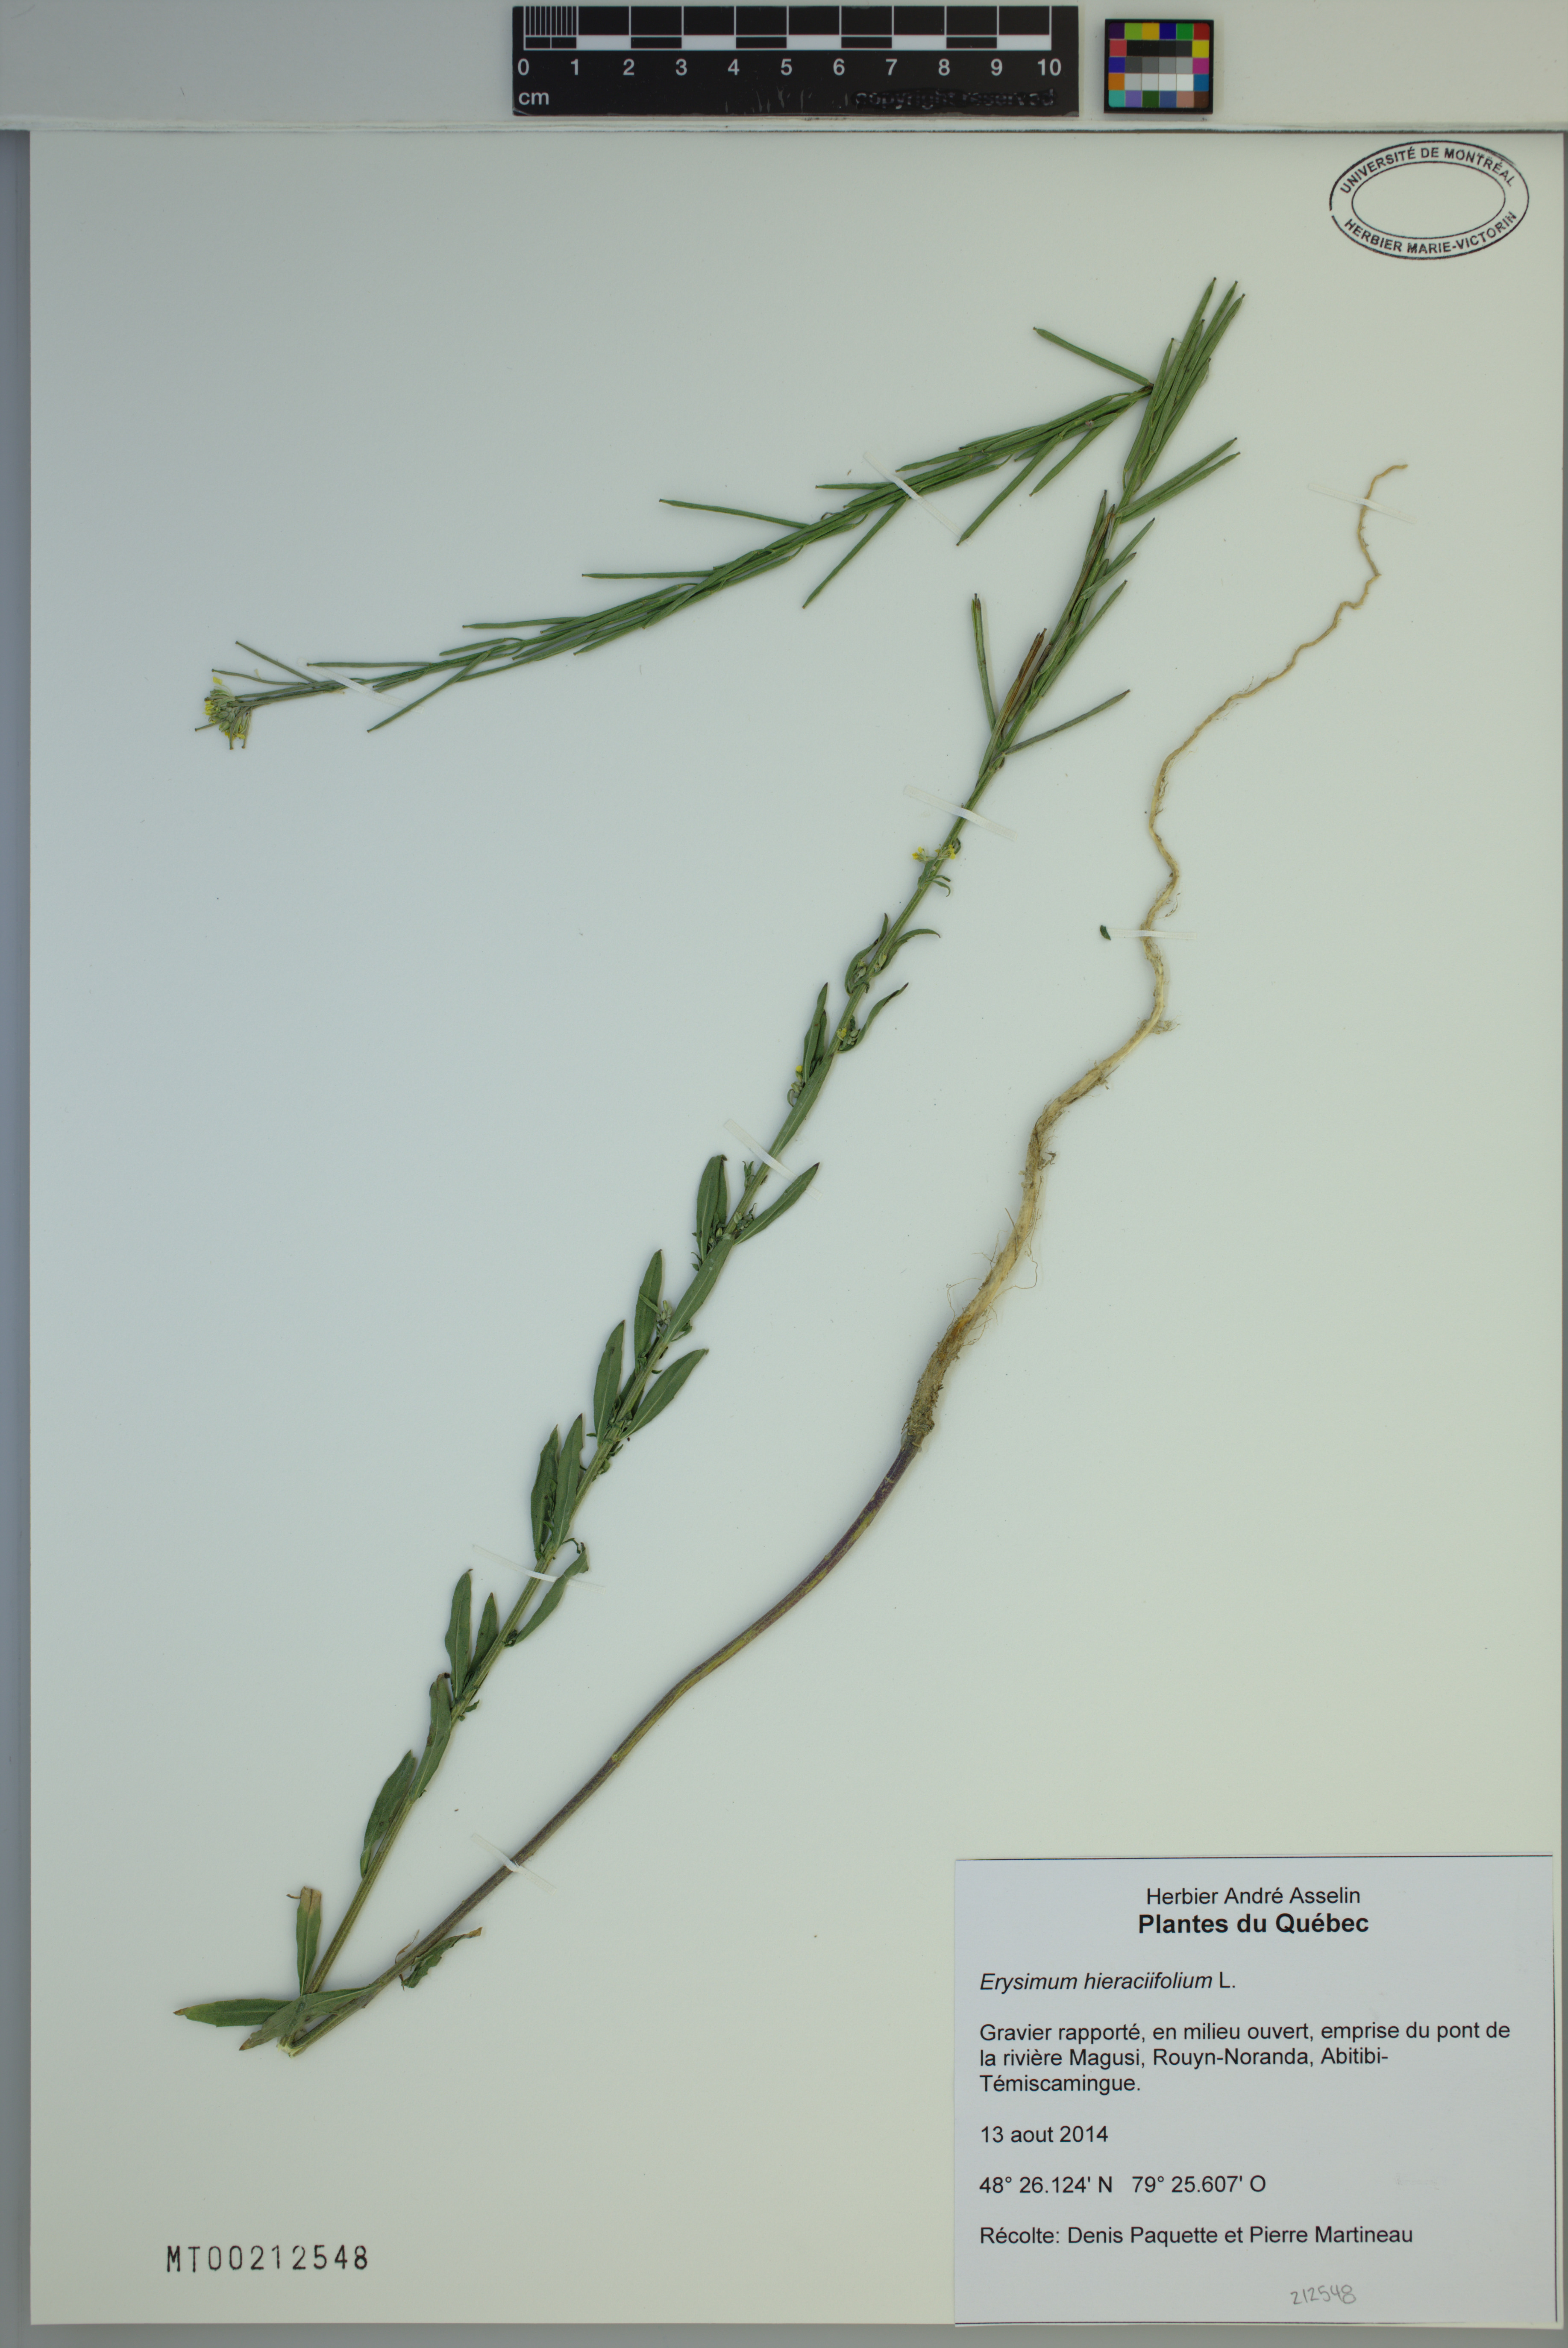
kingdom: Plantae
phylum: Tracheophyta
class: Magnoliopsida
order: Brassicales
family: Brassicaceae
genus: Erysimum
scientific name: Erysimum hieraciifolium
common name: European wallflower
